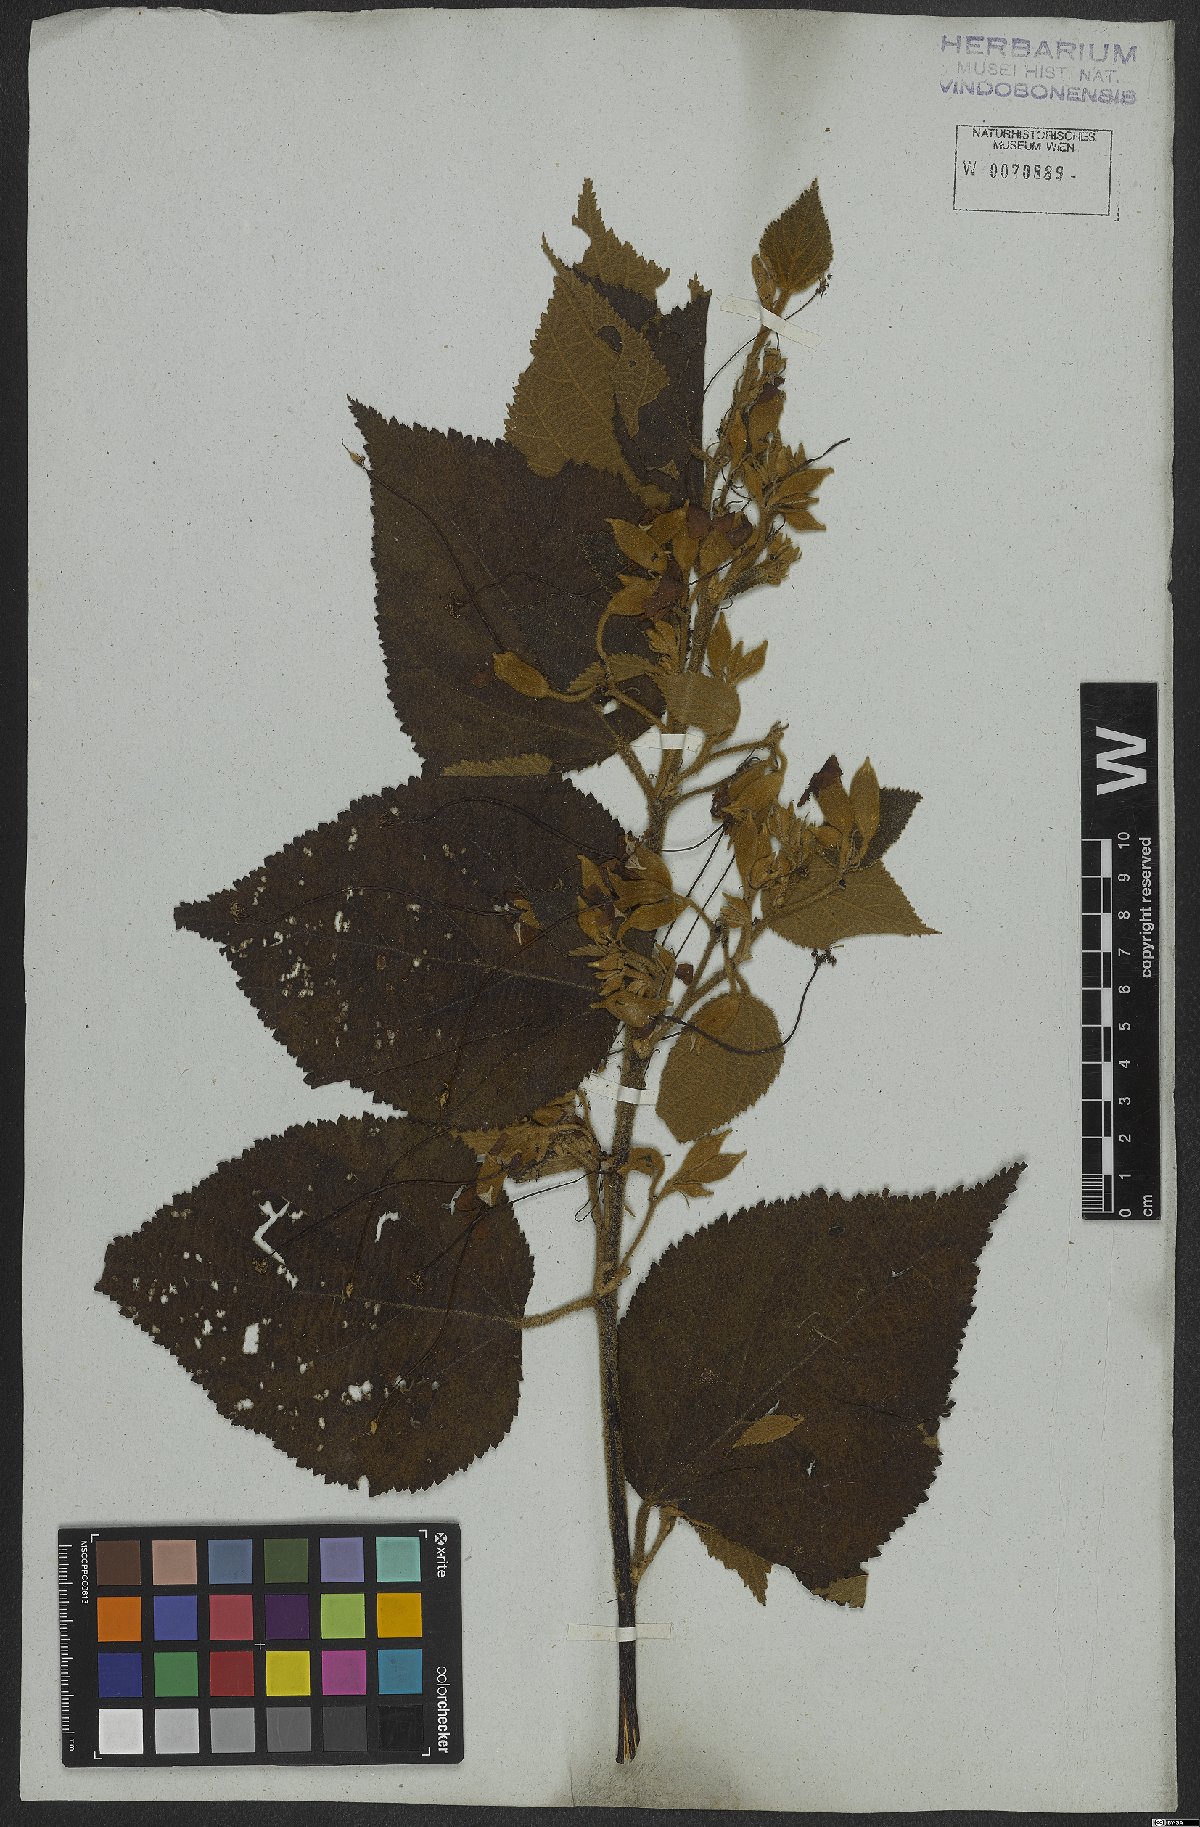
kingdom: Plantae
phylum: Tracheophyta
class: Magnoliopsida
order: Malvales
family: Malvaceae
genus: Helicteres
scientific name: Helicteres ovata
